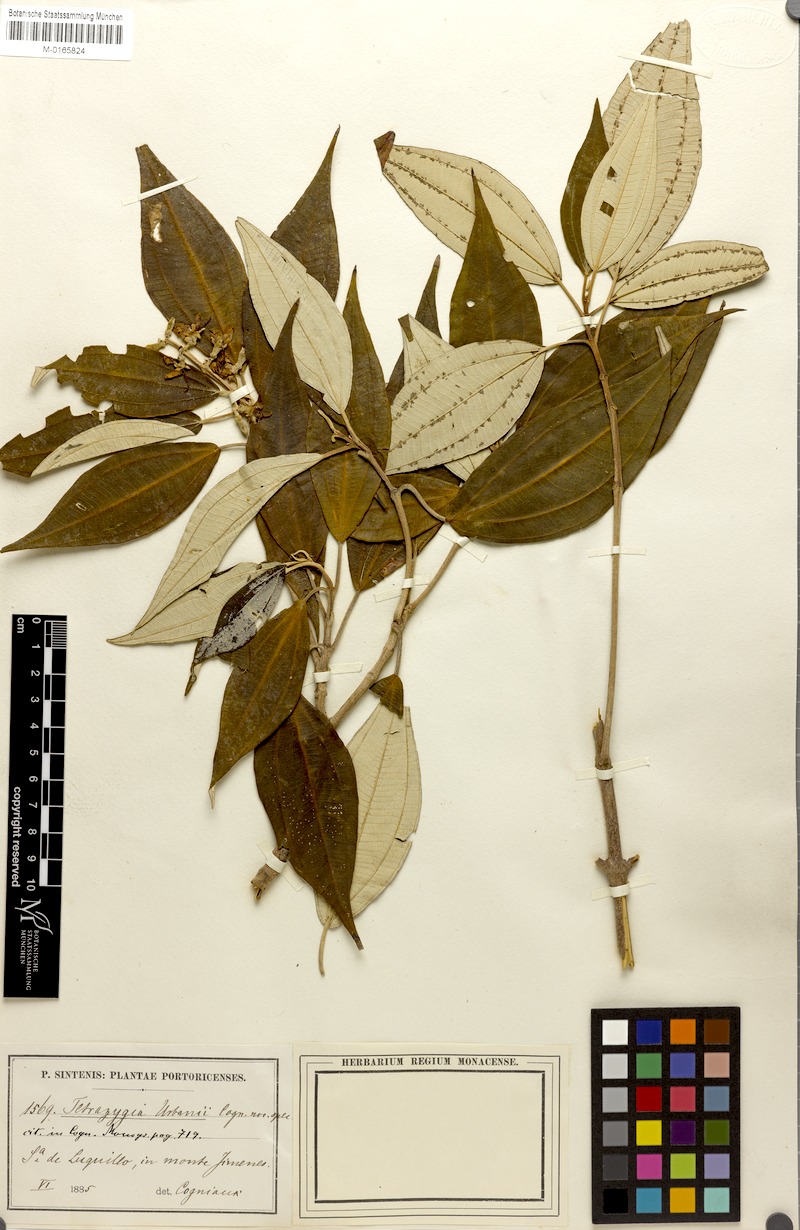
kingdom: Plantae
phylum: Tracheophyta
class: Magnoliopsida
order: Myrtales
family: Melastomataceae
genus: Miconia
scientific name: Miconia urbanii
